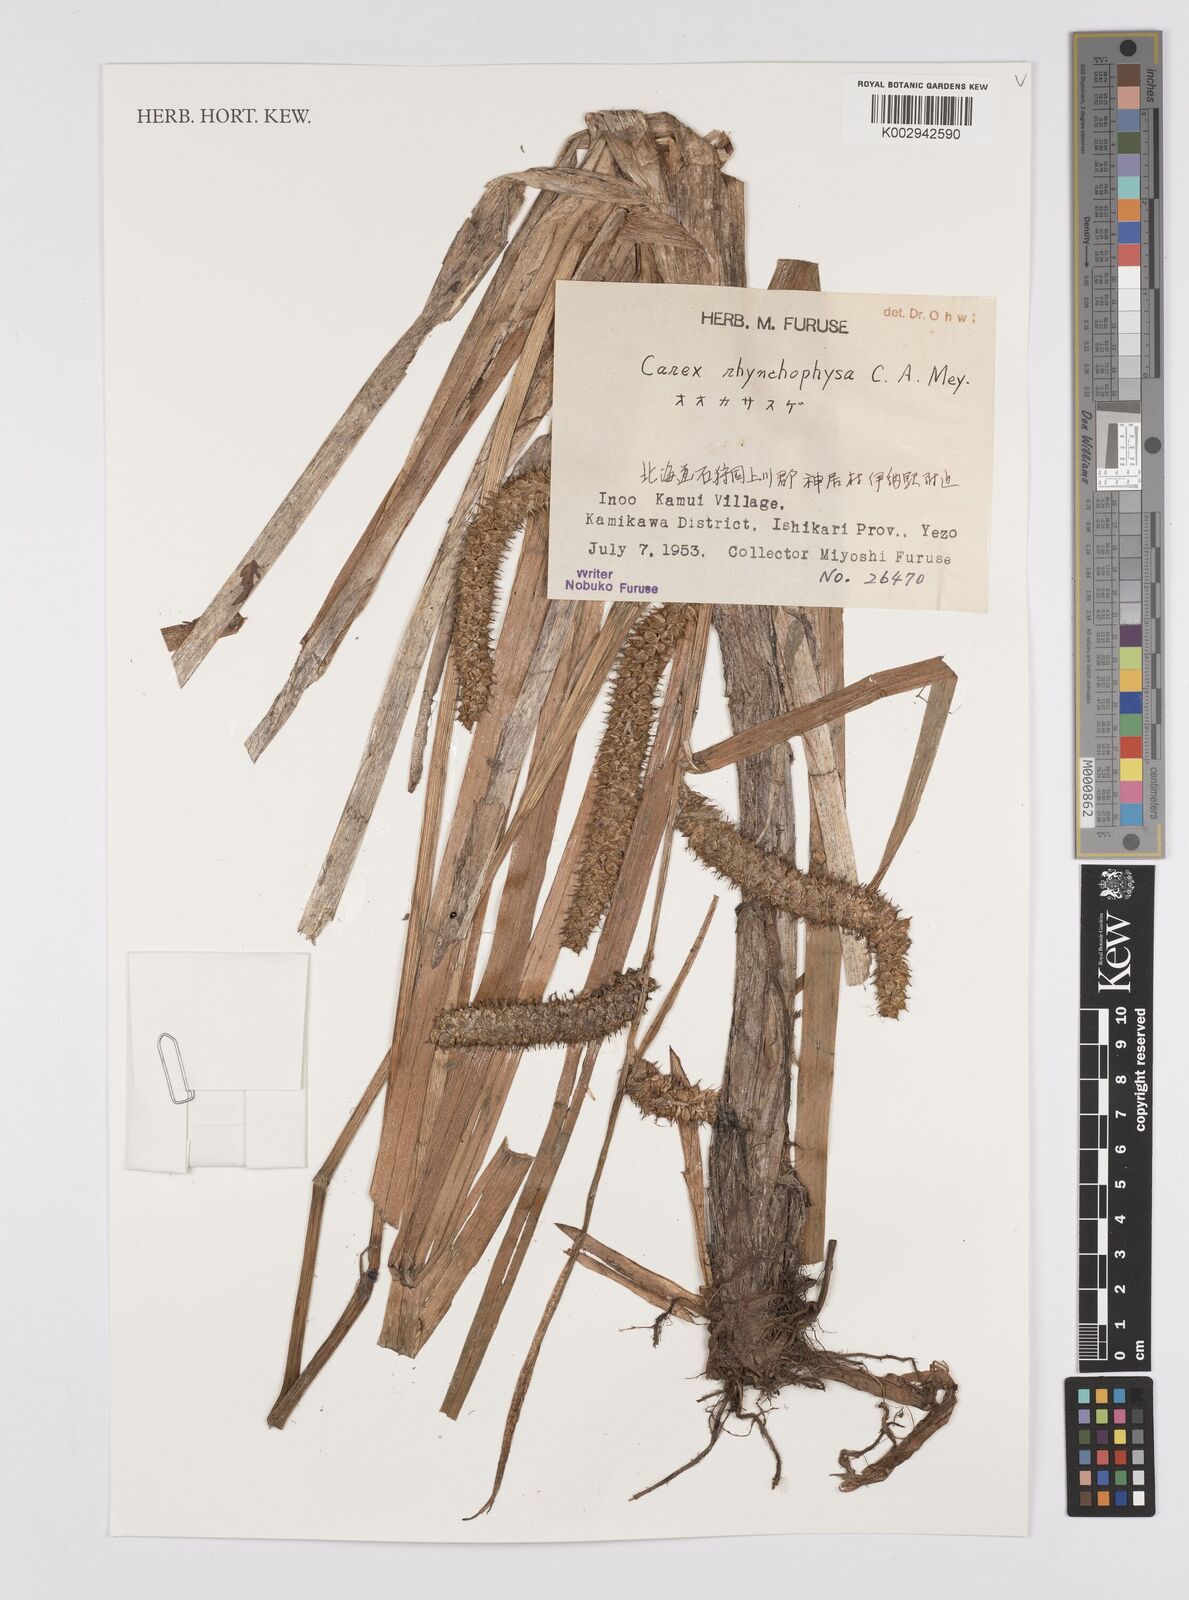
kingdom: Plantae
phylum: Tracheophyta
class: Liliopsida
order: Poales
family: Cyperaceae
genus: Carex
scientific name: Carex utriculata
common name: Beaked sedge
